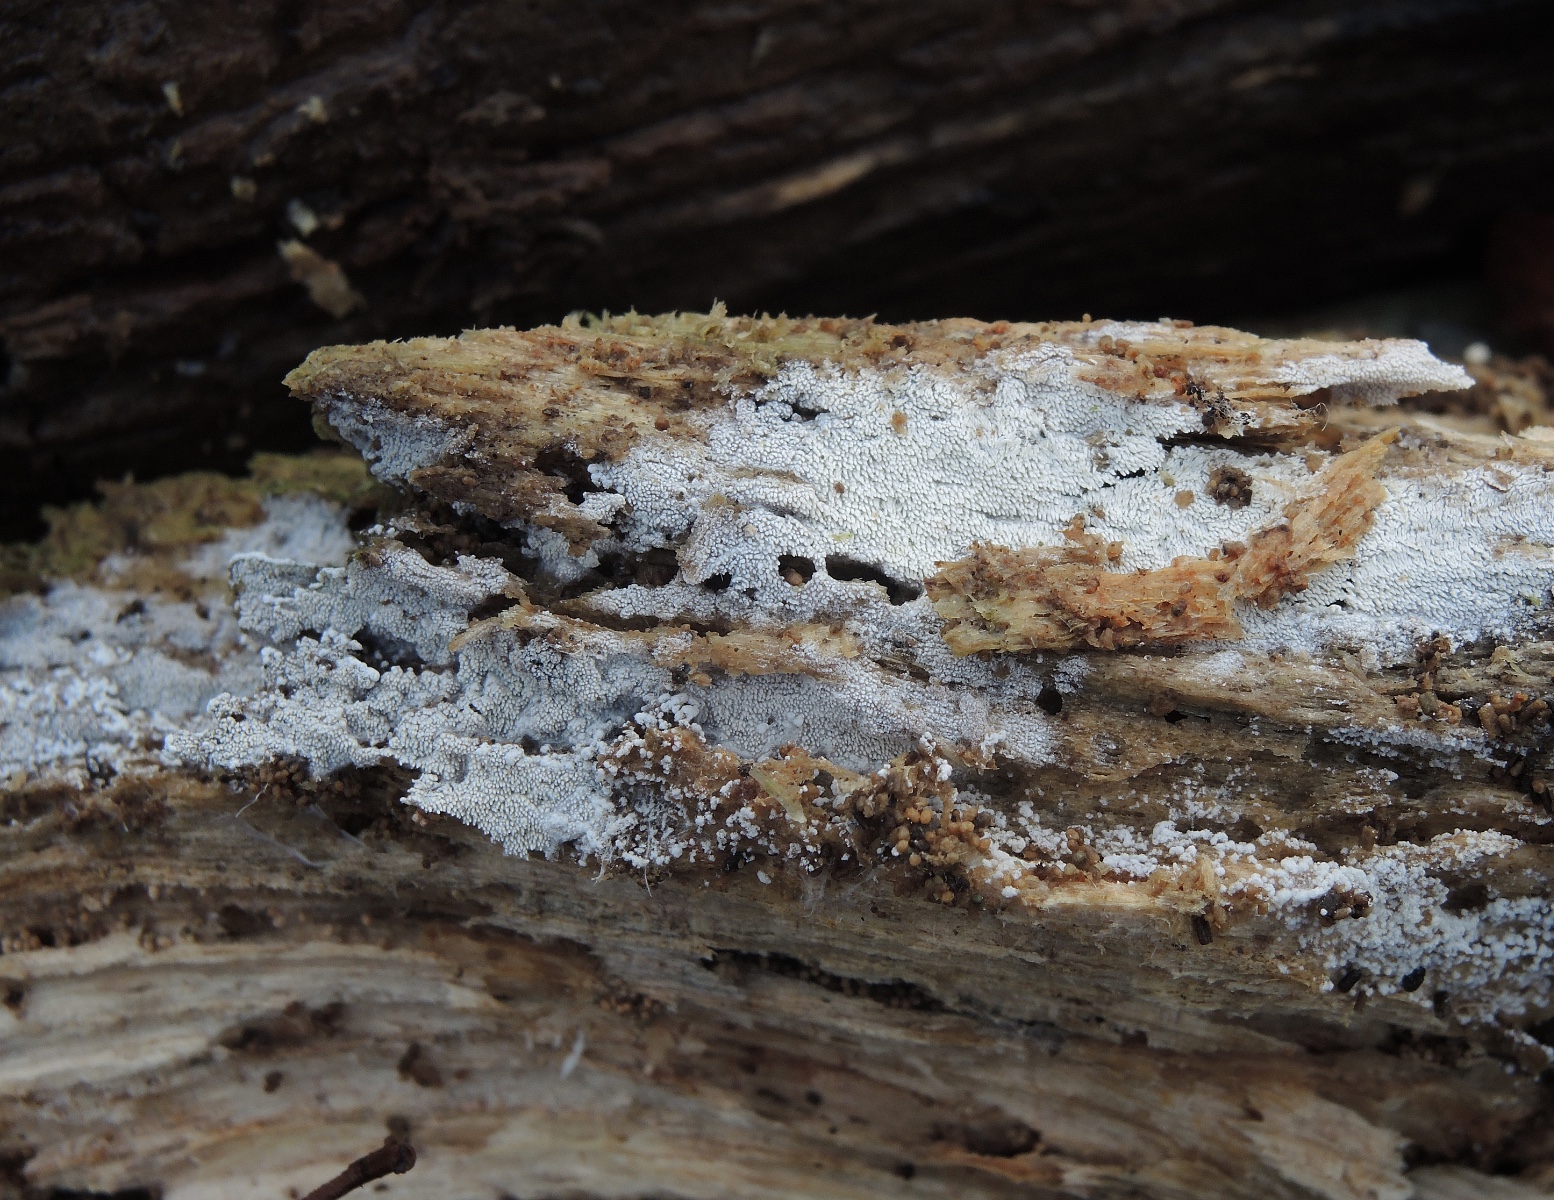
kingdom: Fungi
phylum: Basidiomycota
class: Agaricomycetes
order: Trechisporales
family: Sistotremataceae
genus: Trechispora
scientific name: Trechispora stevensonii
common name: støvende vathinde
